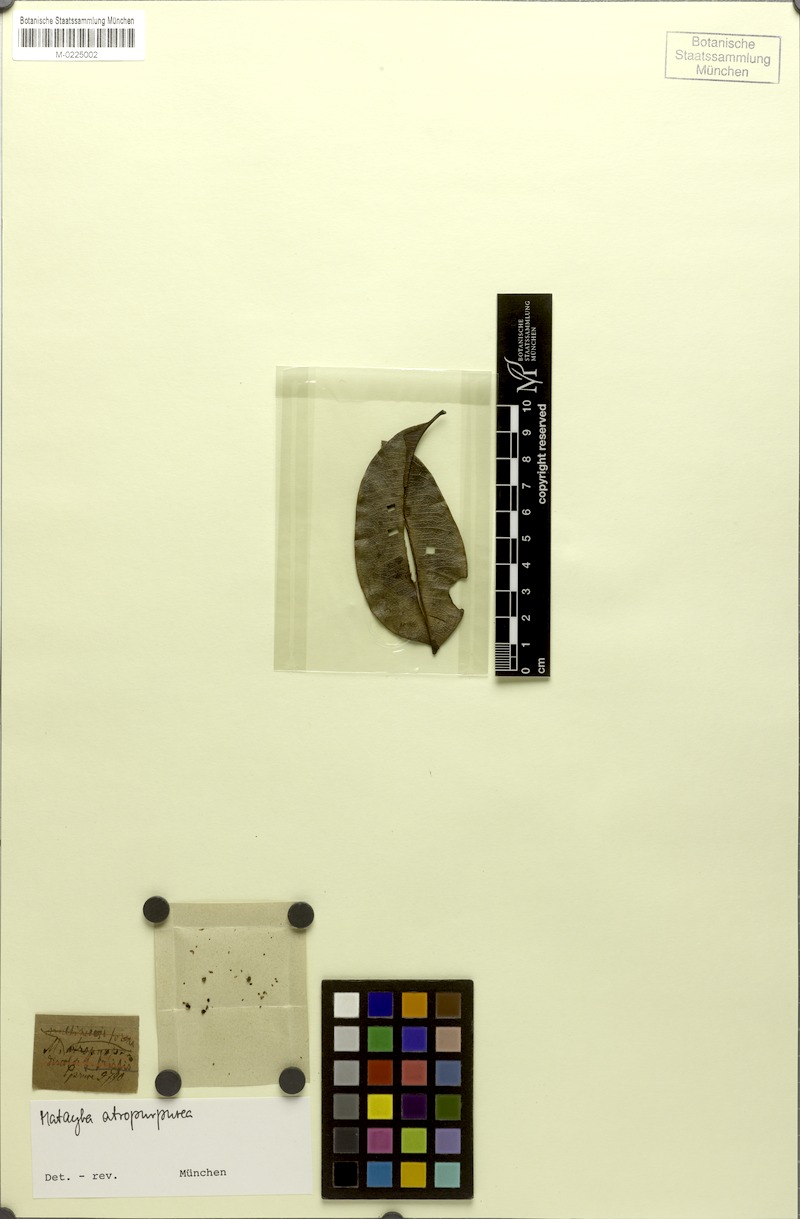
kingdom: Plantae
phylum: Tracheophyta
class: Magnoliopsida
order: Sapindales
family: Sapindaceae
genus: Matayba
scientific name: Matayba atropurpurea
